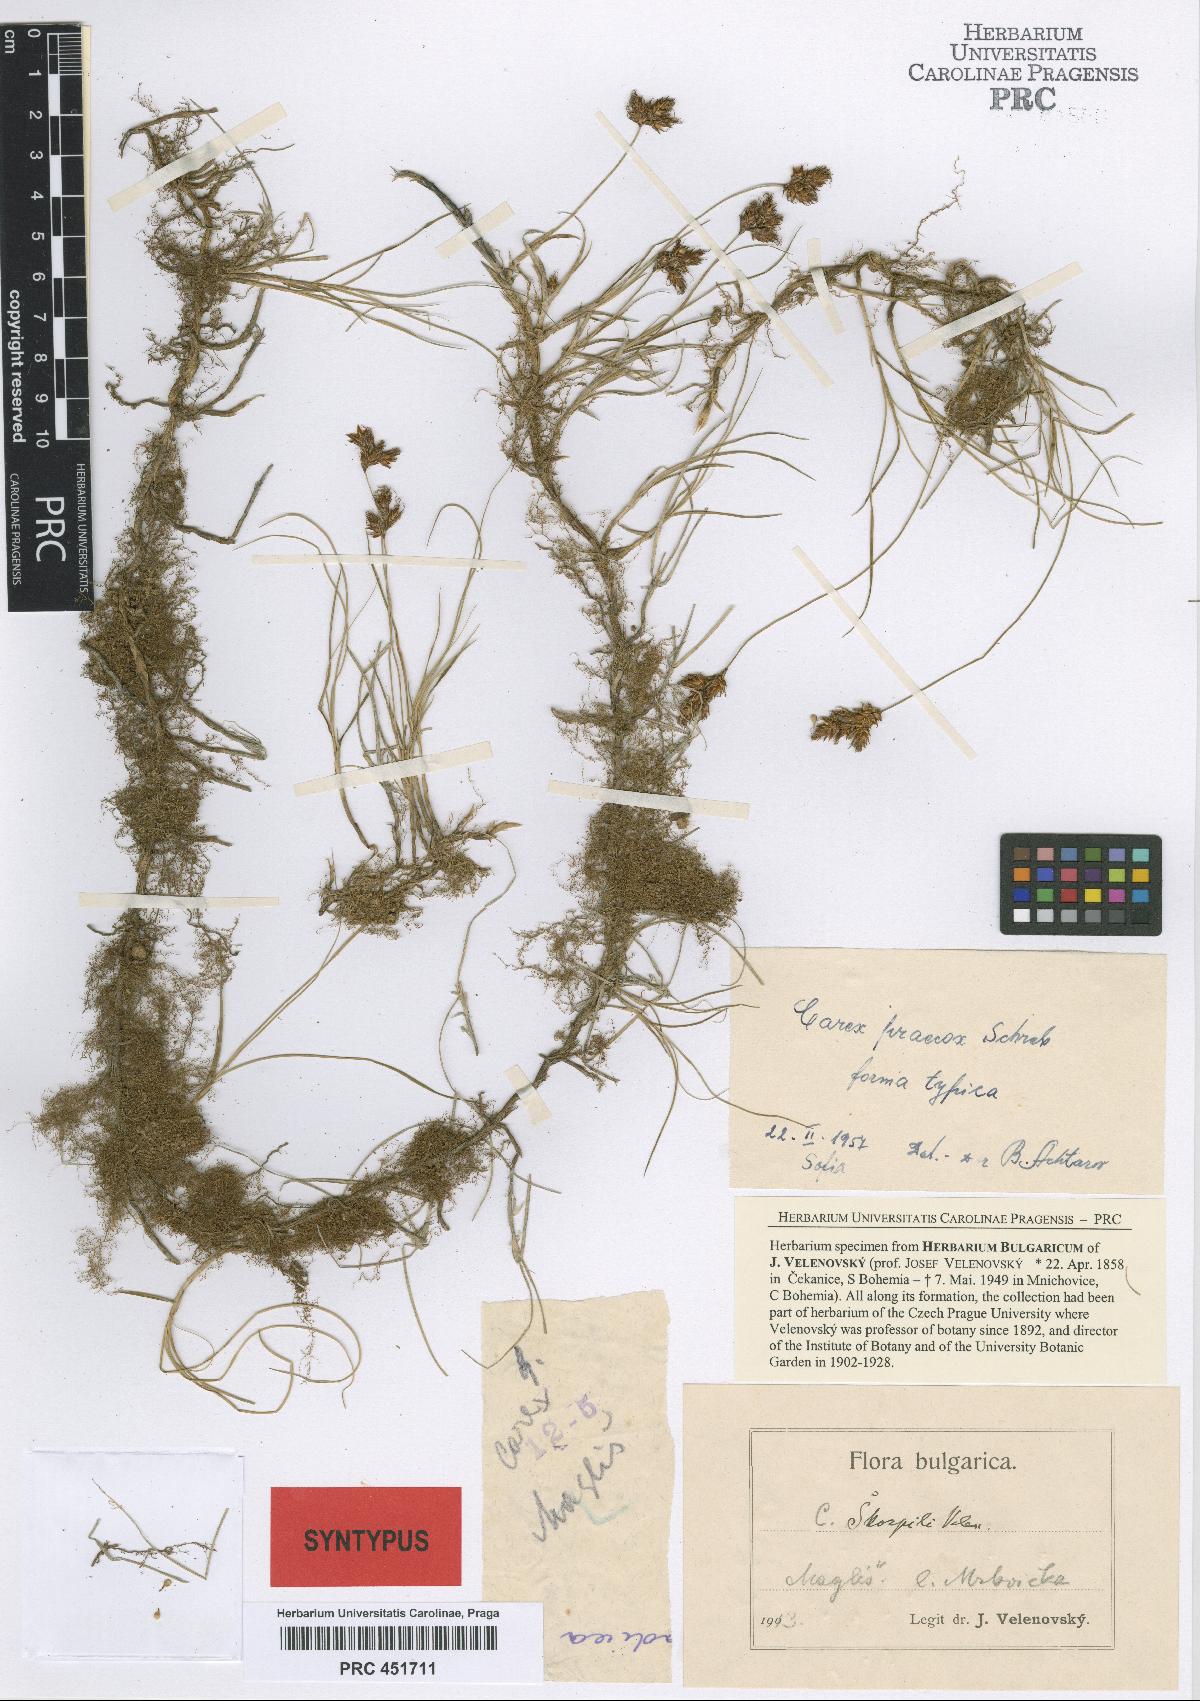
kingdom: Plantae
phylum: Tracheophyta
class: Liliopsida
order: Poales
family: Cyperaceae
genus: Carex
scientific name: Carex skorpili
